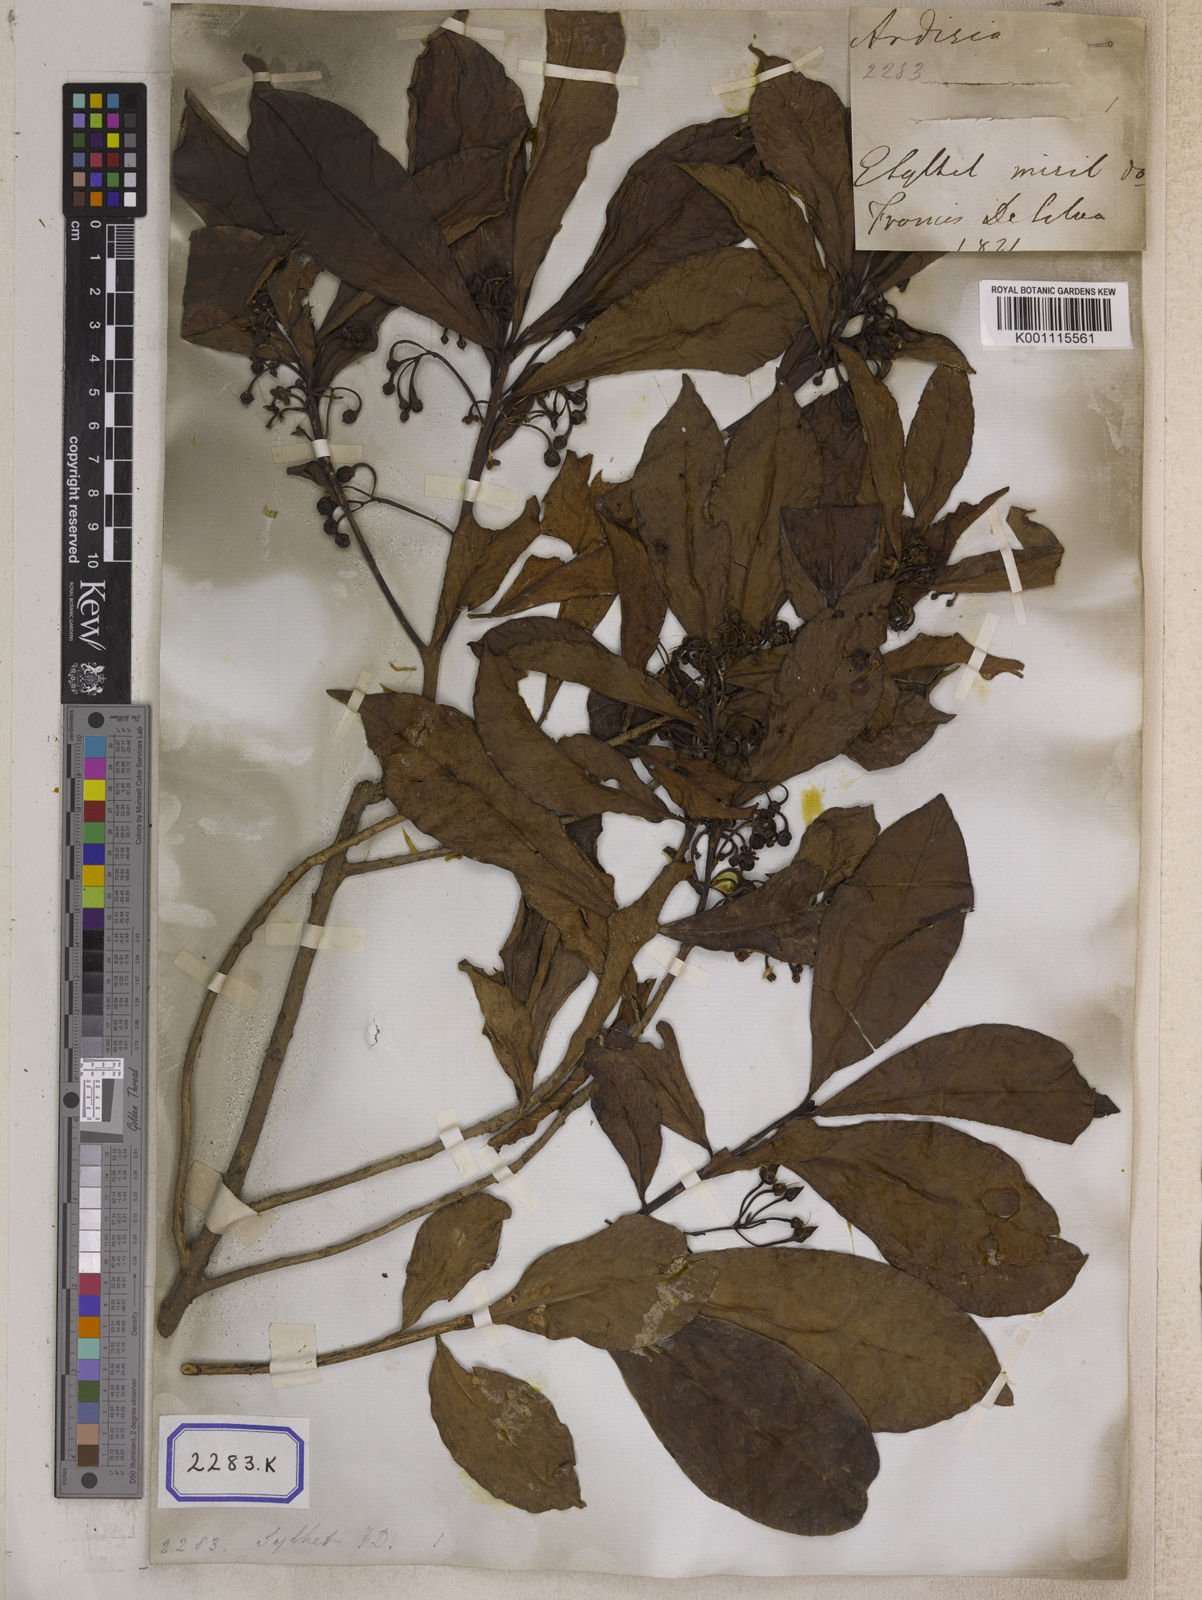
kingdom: Plantae
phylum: Tracheophyta
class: Magnoliopsida
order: Ericales
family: Primulaceae
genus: Ardisia
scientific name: Ardisia humilis
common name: Low shoebutton
